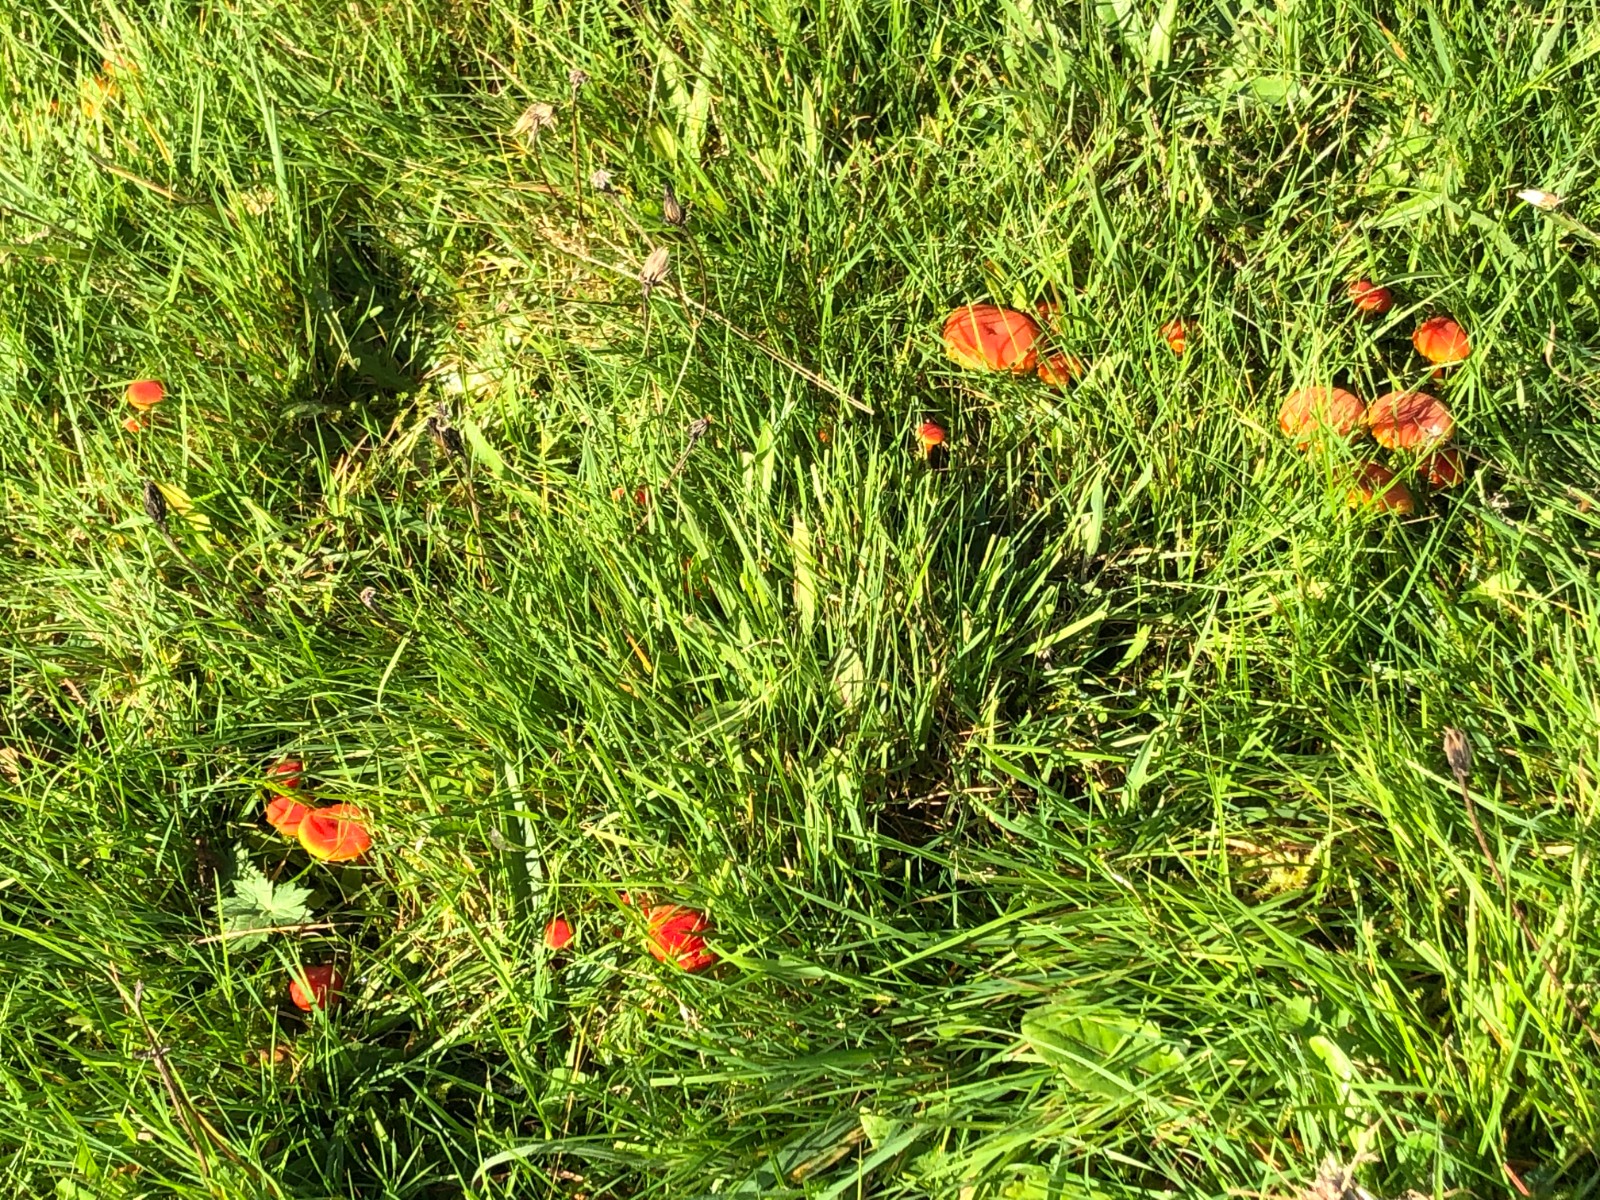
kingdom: Fungi
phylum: Basidiomycota
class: Agaricomycetes
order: Agaricales
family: Hygrophoraceae
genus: Hygrocybe
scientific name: Hygrocybe miniata
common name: mønje-vokshat
